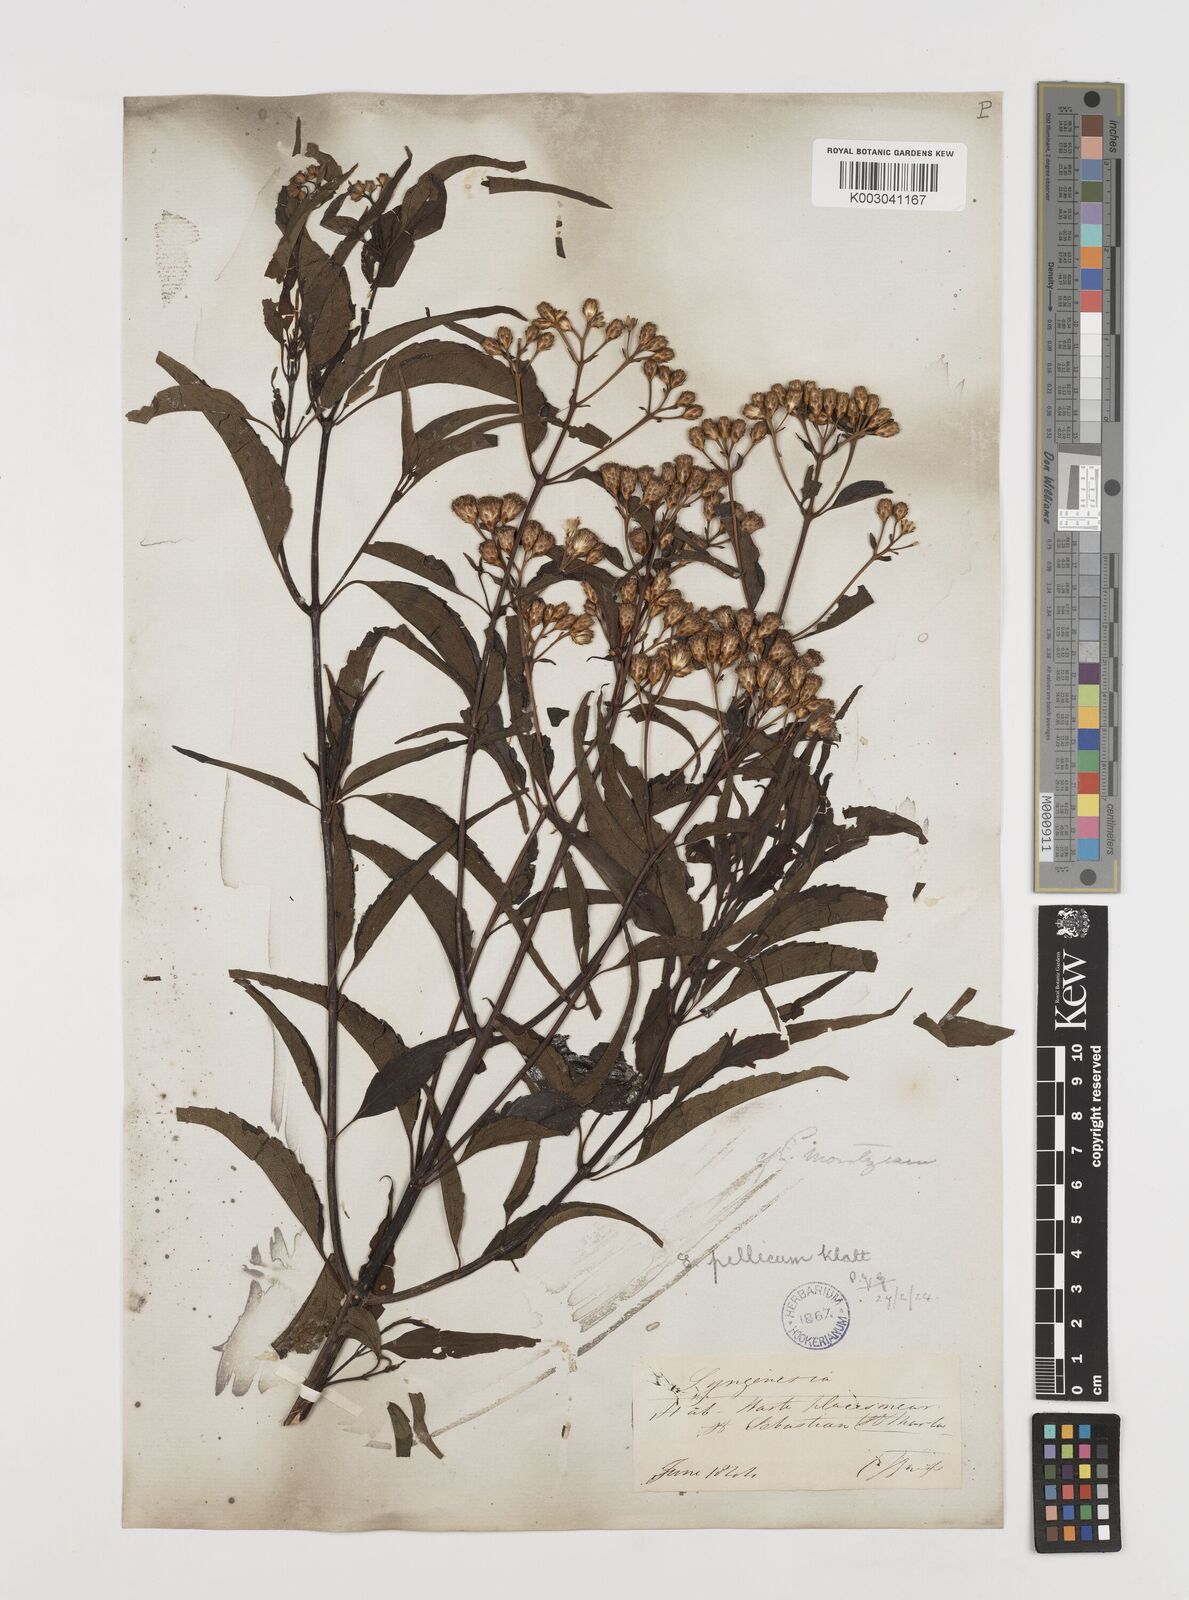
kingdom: Plantae
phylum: Tracheophyta
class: Magnoliopsida
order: Asterales
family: Asteraceae
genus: Chromolaena
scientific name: Chromolaena pellia
